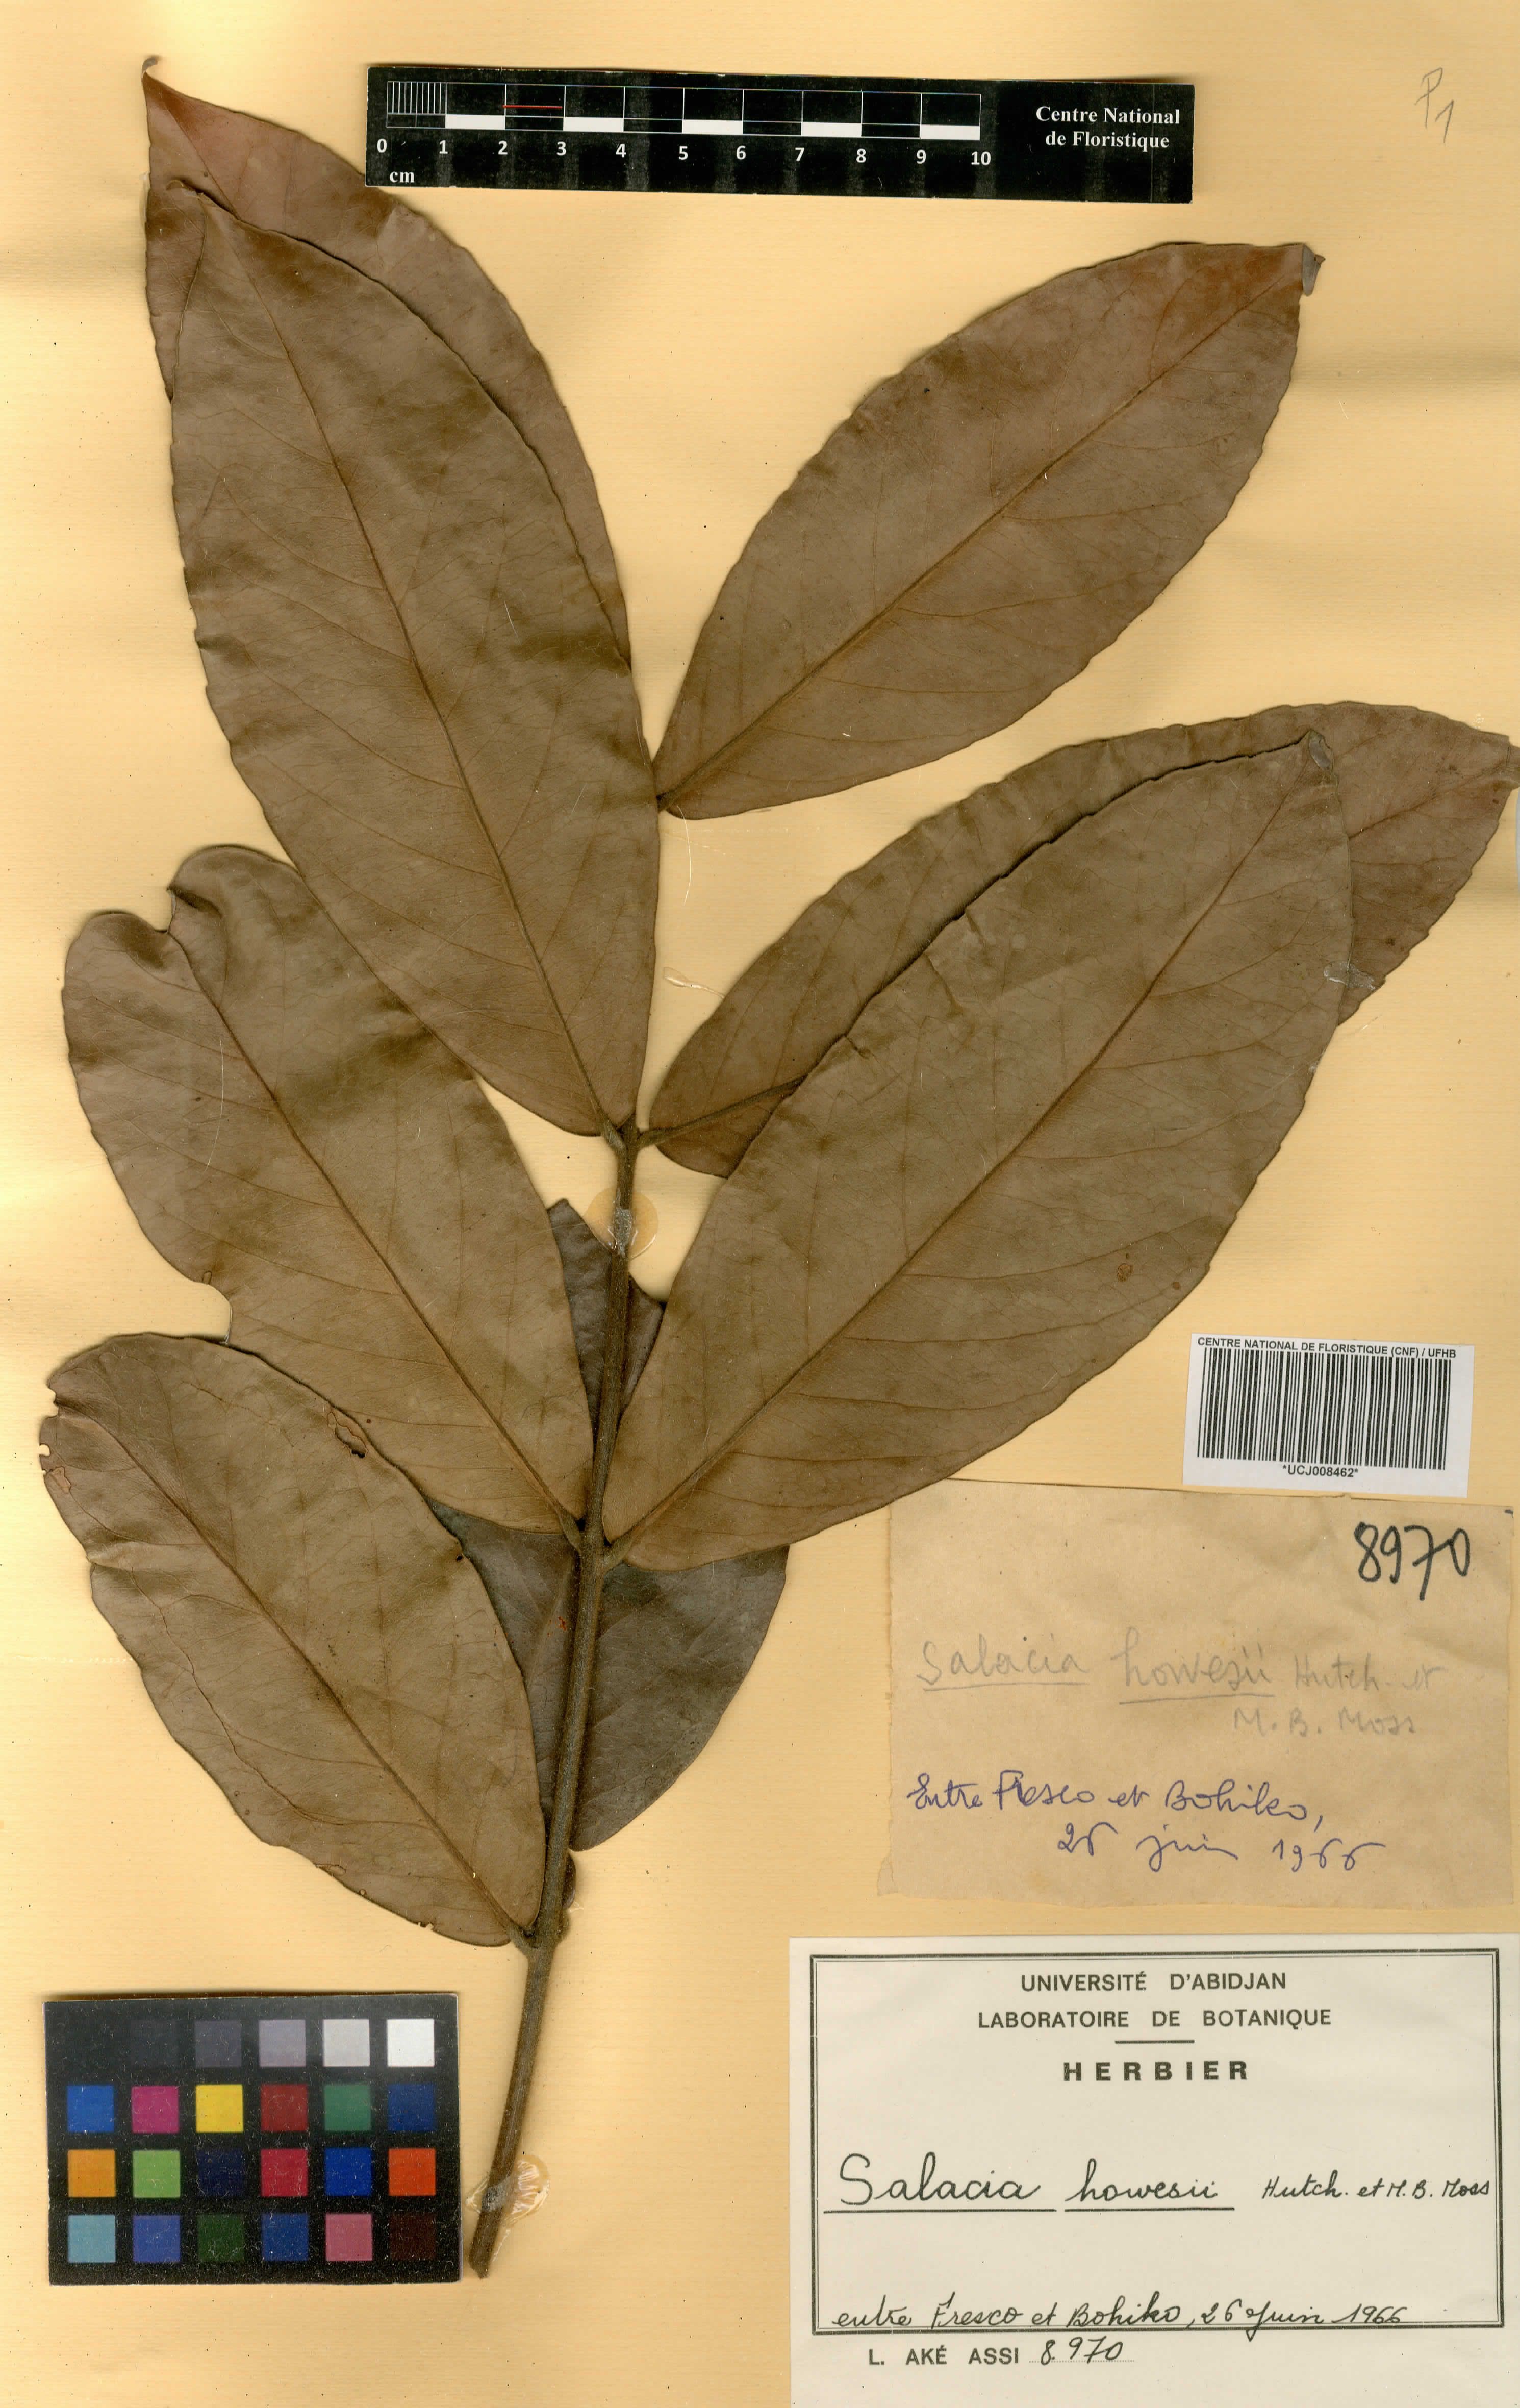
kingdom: Plantae
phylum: Tracheophyta
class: Magnoliopsida
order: Celastrales
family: Celastraceae
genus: Salacia
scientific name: Salacia howesii
